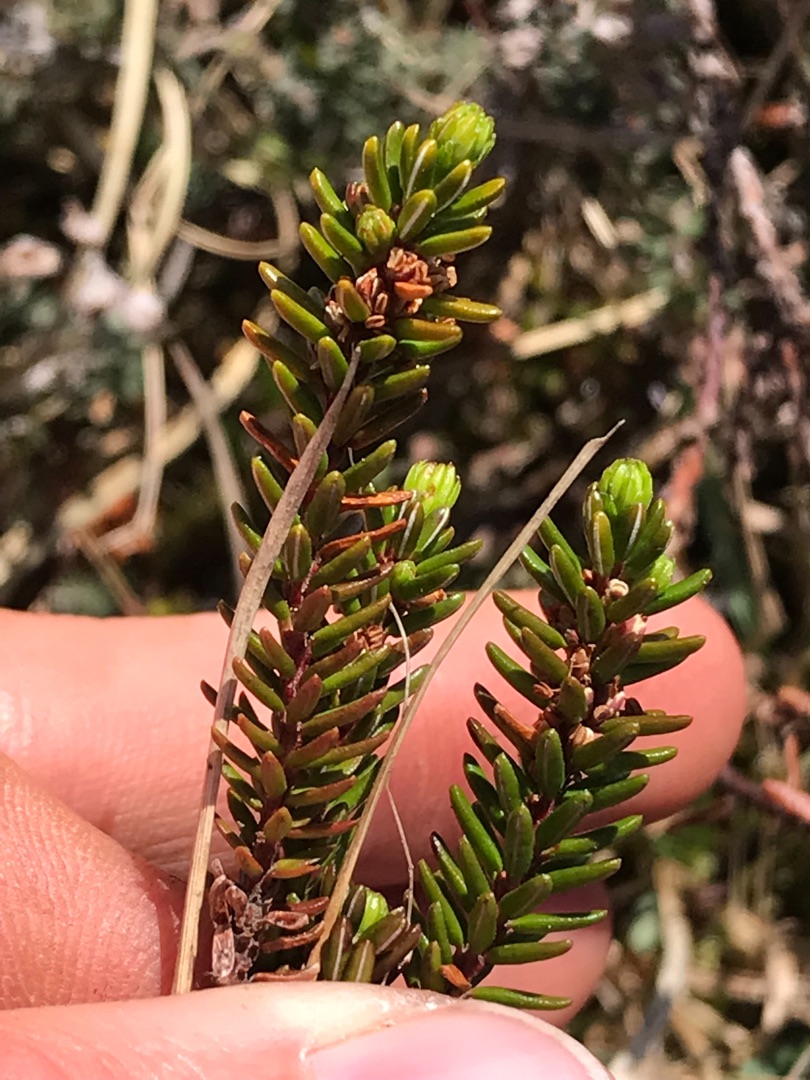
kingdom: Plantae
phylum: Tracheophyta
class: Magnoliopsida
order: Ericales
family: Ericaceae
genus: Empetrum
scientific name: Empetrum nigrum
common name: Revling
